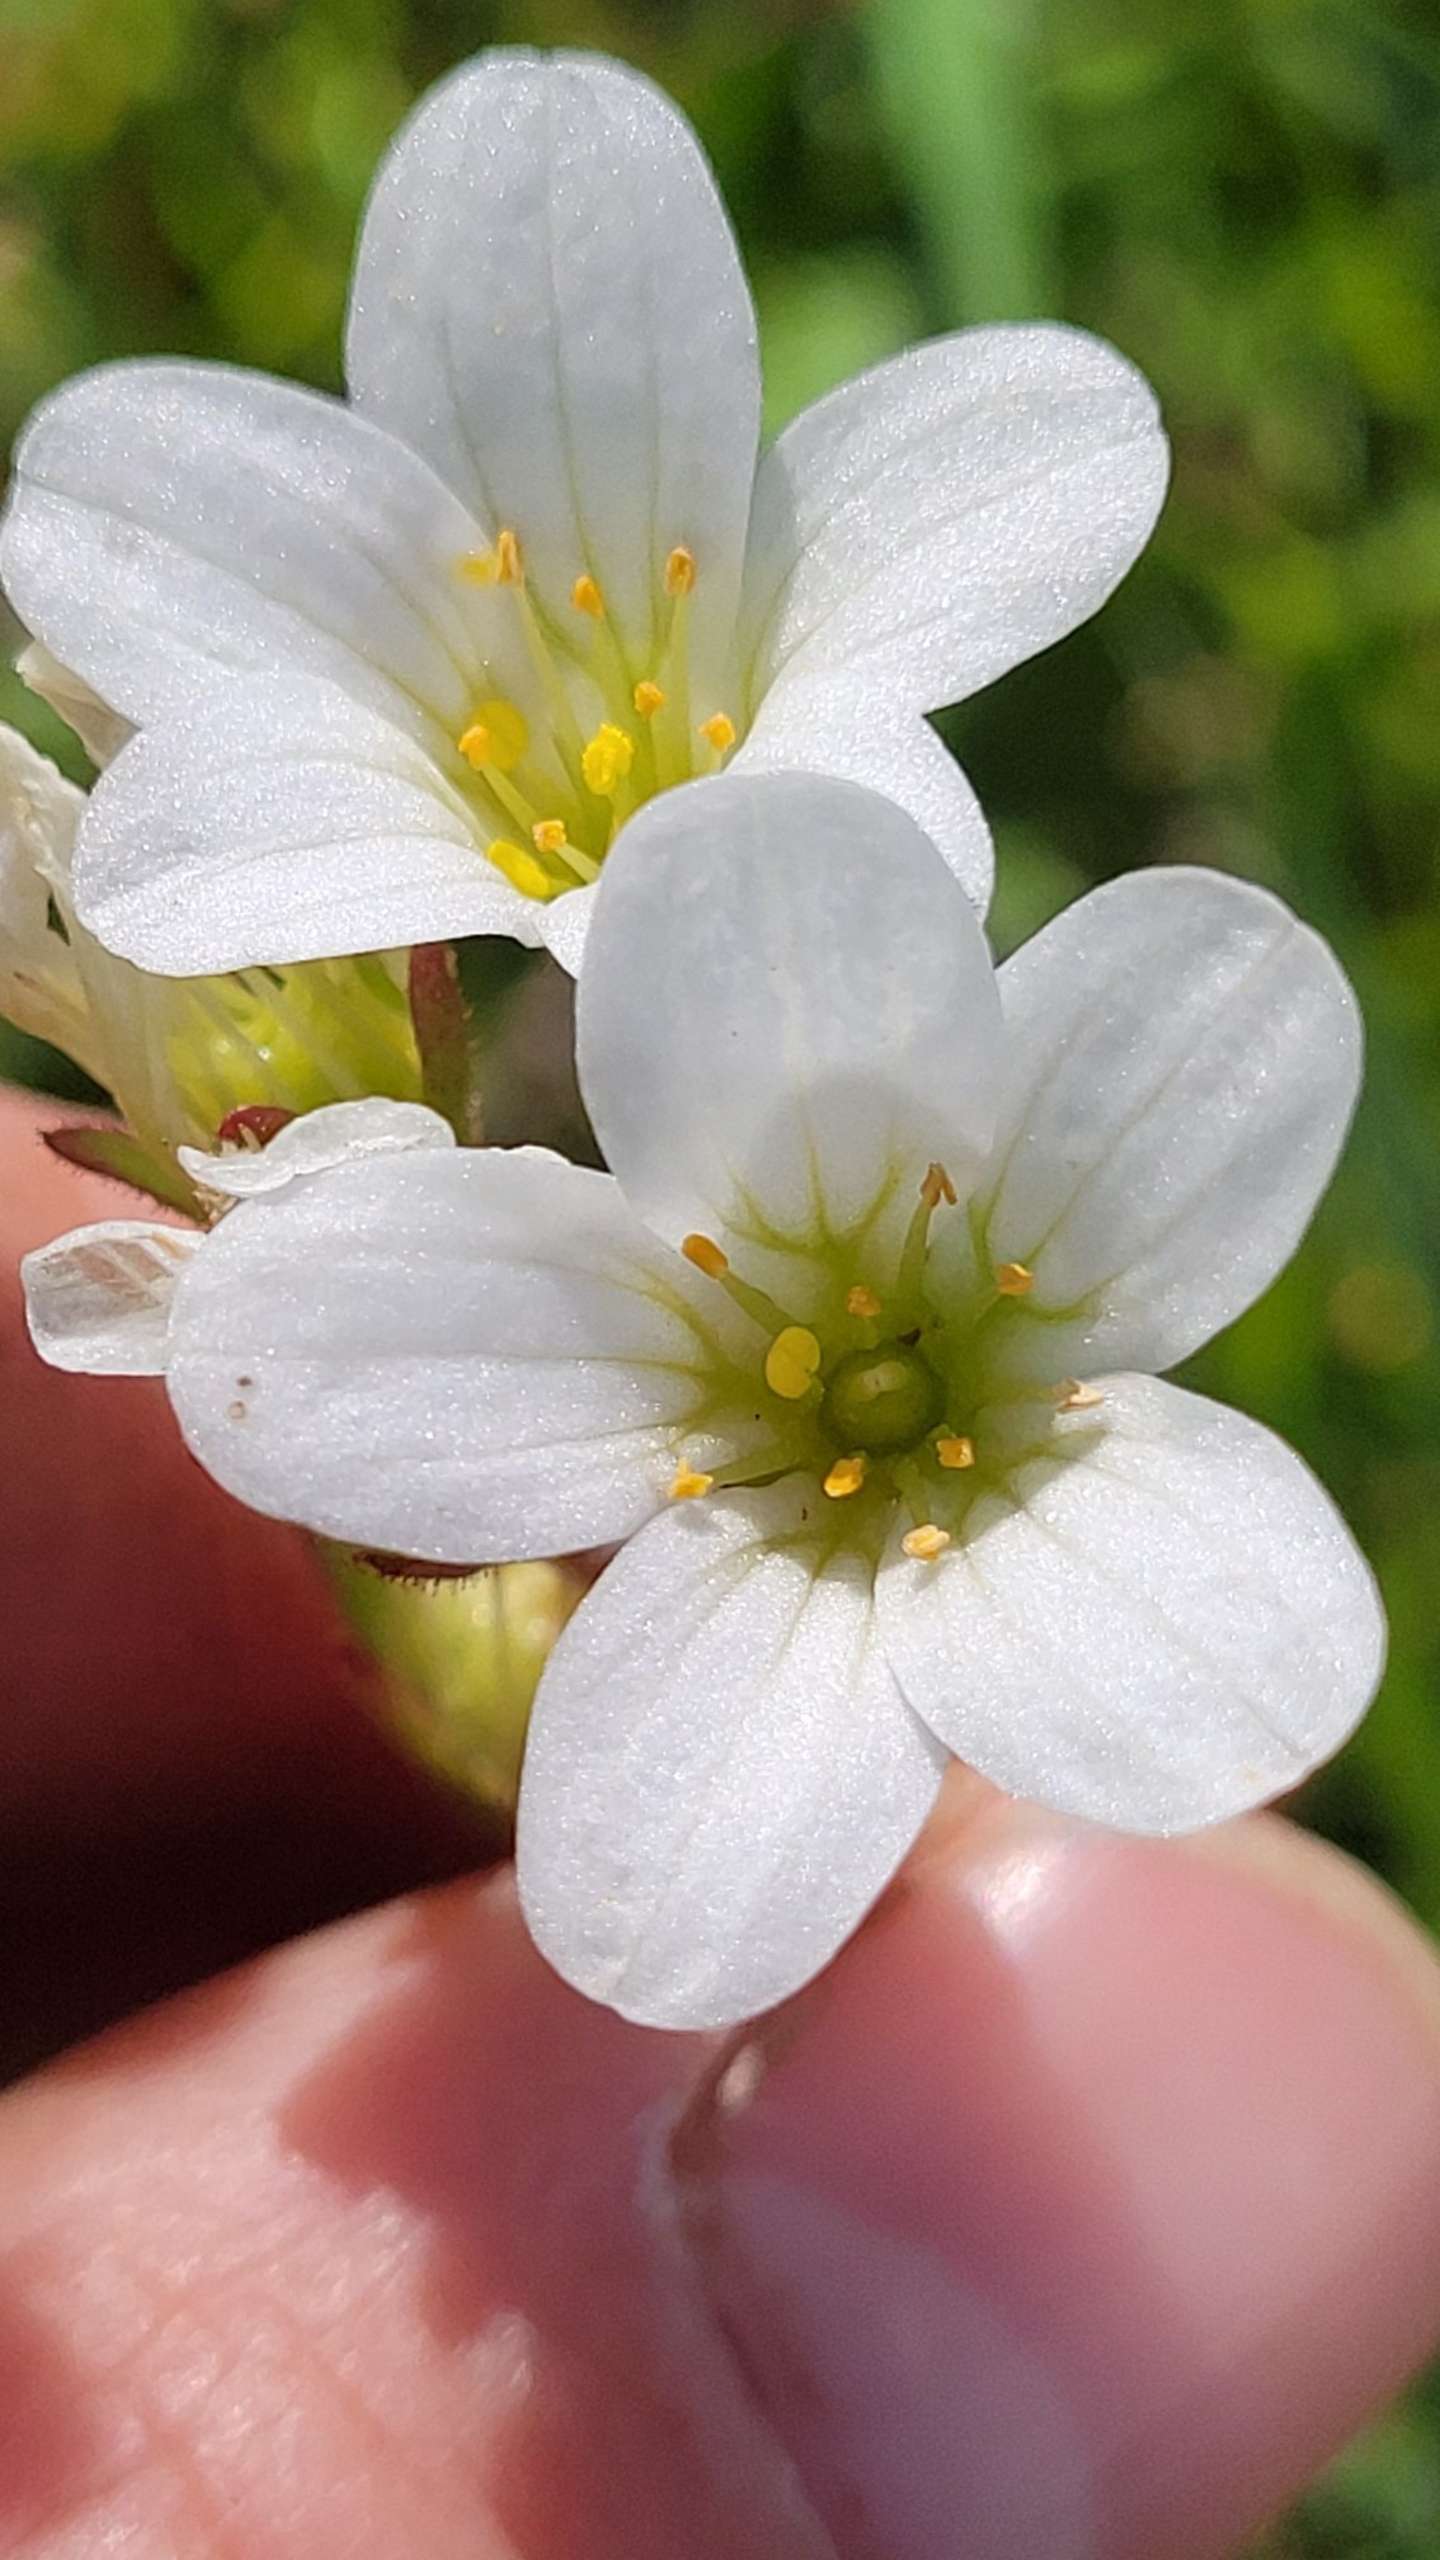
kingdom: Plantae
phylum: Tracheophyta
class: Magnoliopsida
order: Saxifragales
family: Saxifragaceae
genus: Saxifraga
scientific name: Saxifraga granulata
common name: Kornet stenbræk
